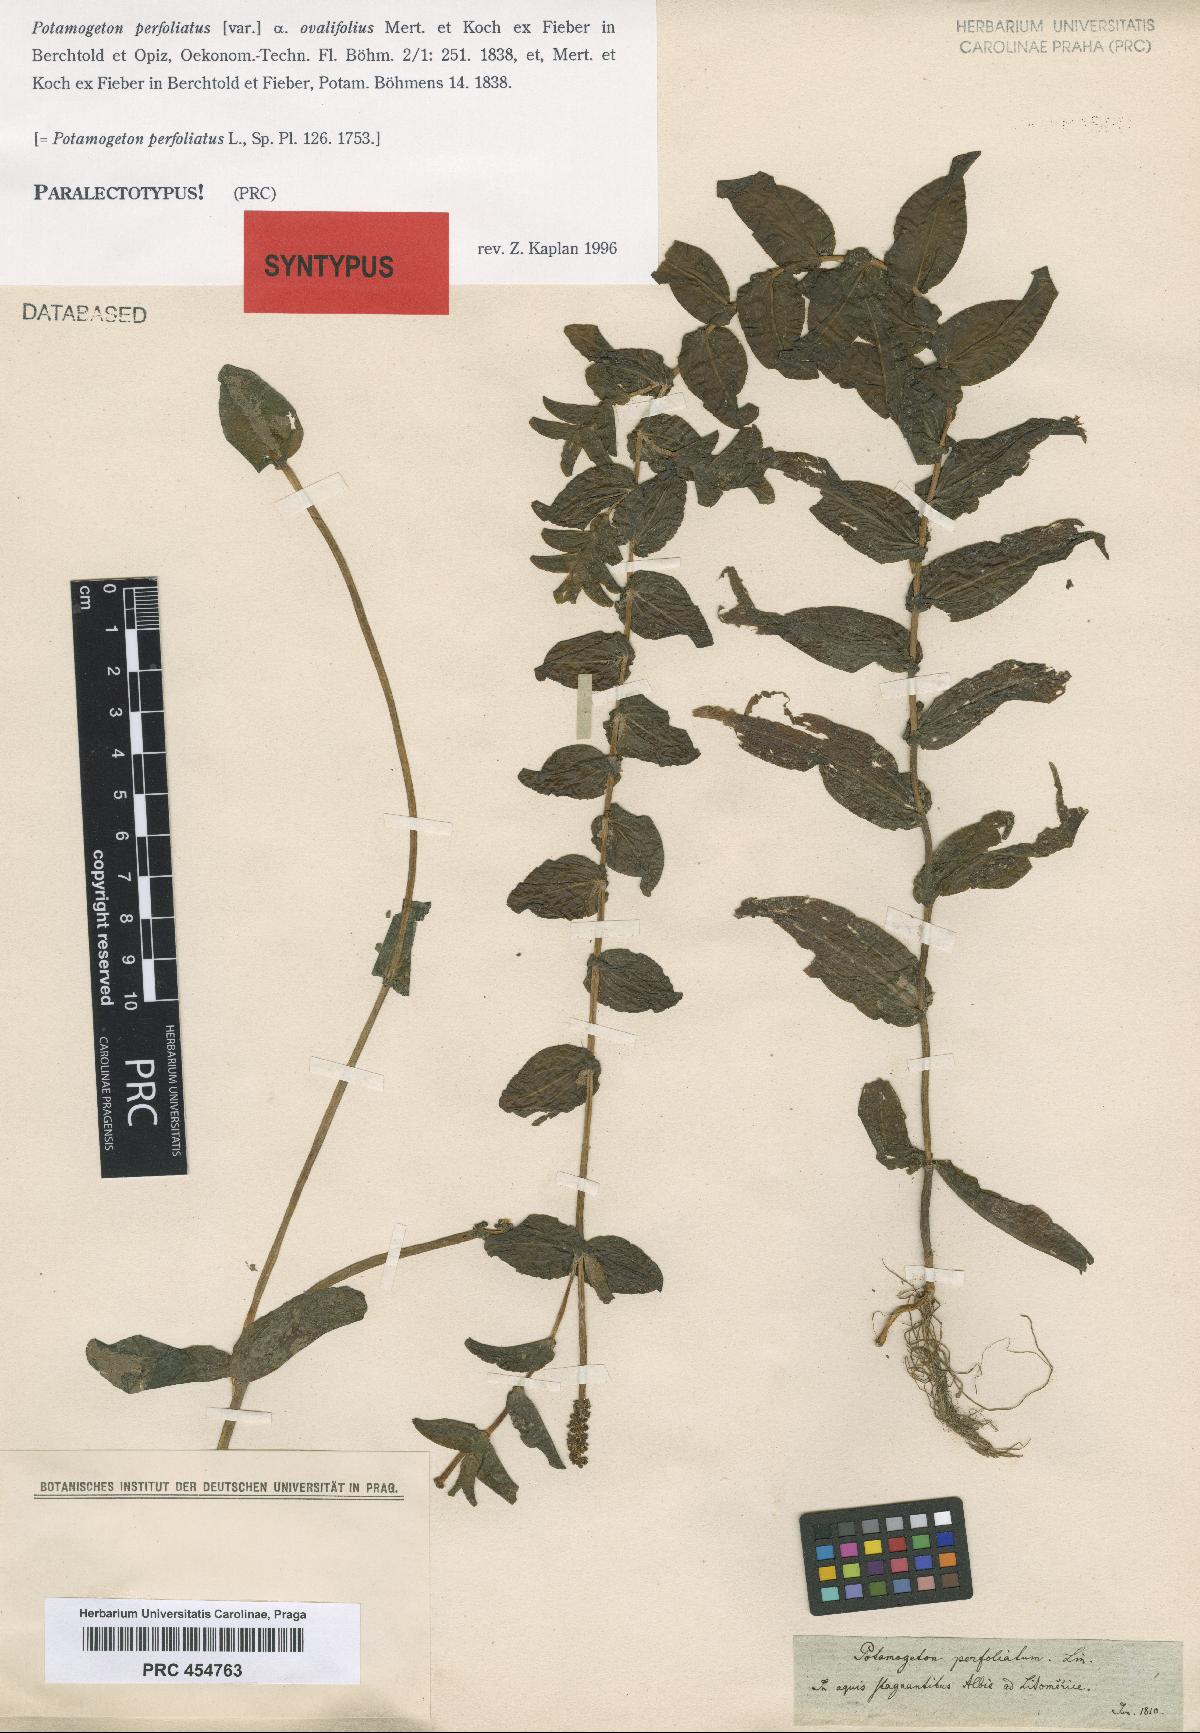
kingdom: Plantae
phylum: Tracheophyta
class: Liliopsida
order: Alismatales
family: Potamogetonaceae
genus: Potamogeton
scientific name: Potamogeton perfoliatus
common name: Perfoliate pondweed
